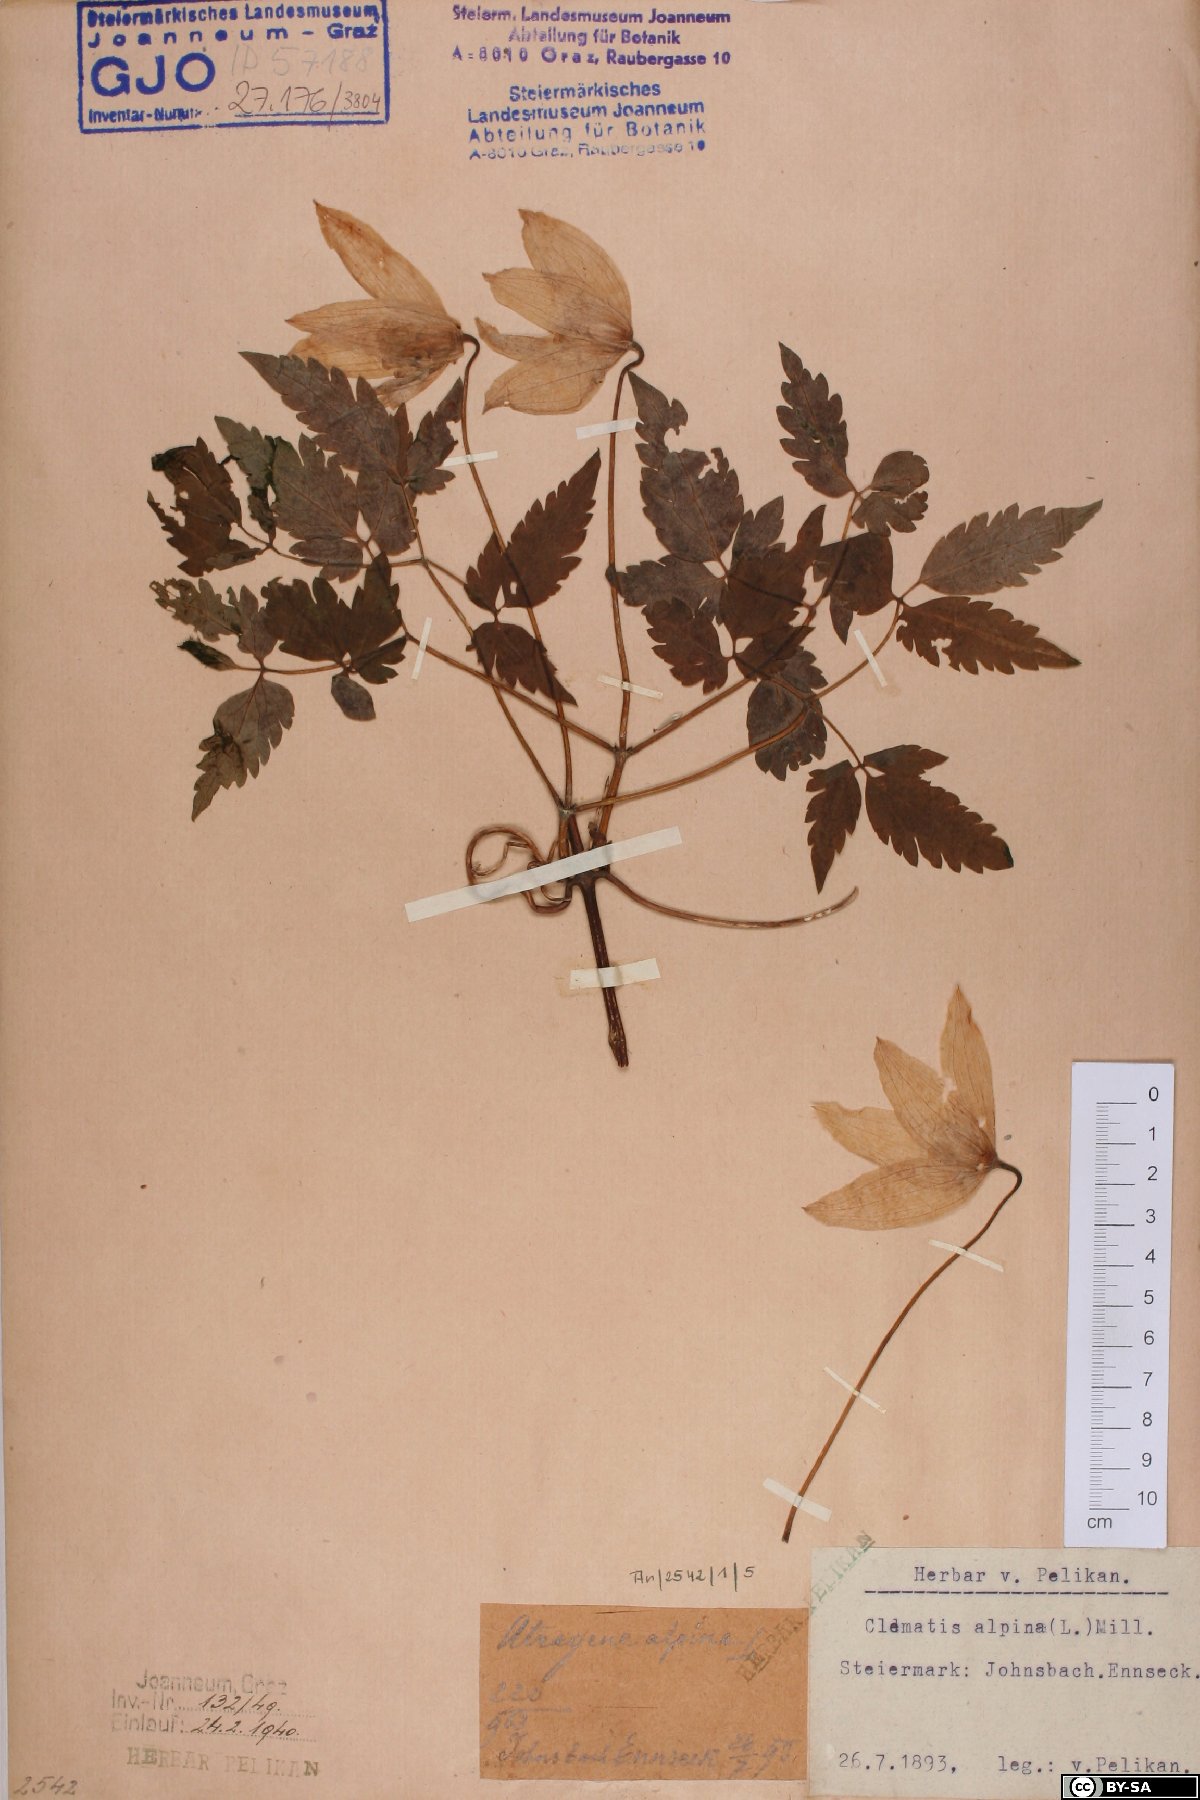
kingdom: Plantae
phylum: Tracheophyta
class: Magnoliopsida
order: Ranunculales
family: Ranunculaceae
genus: Clematis
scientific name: Clematis alpina
